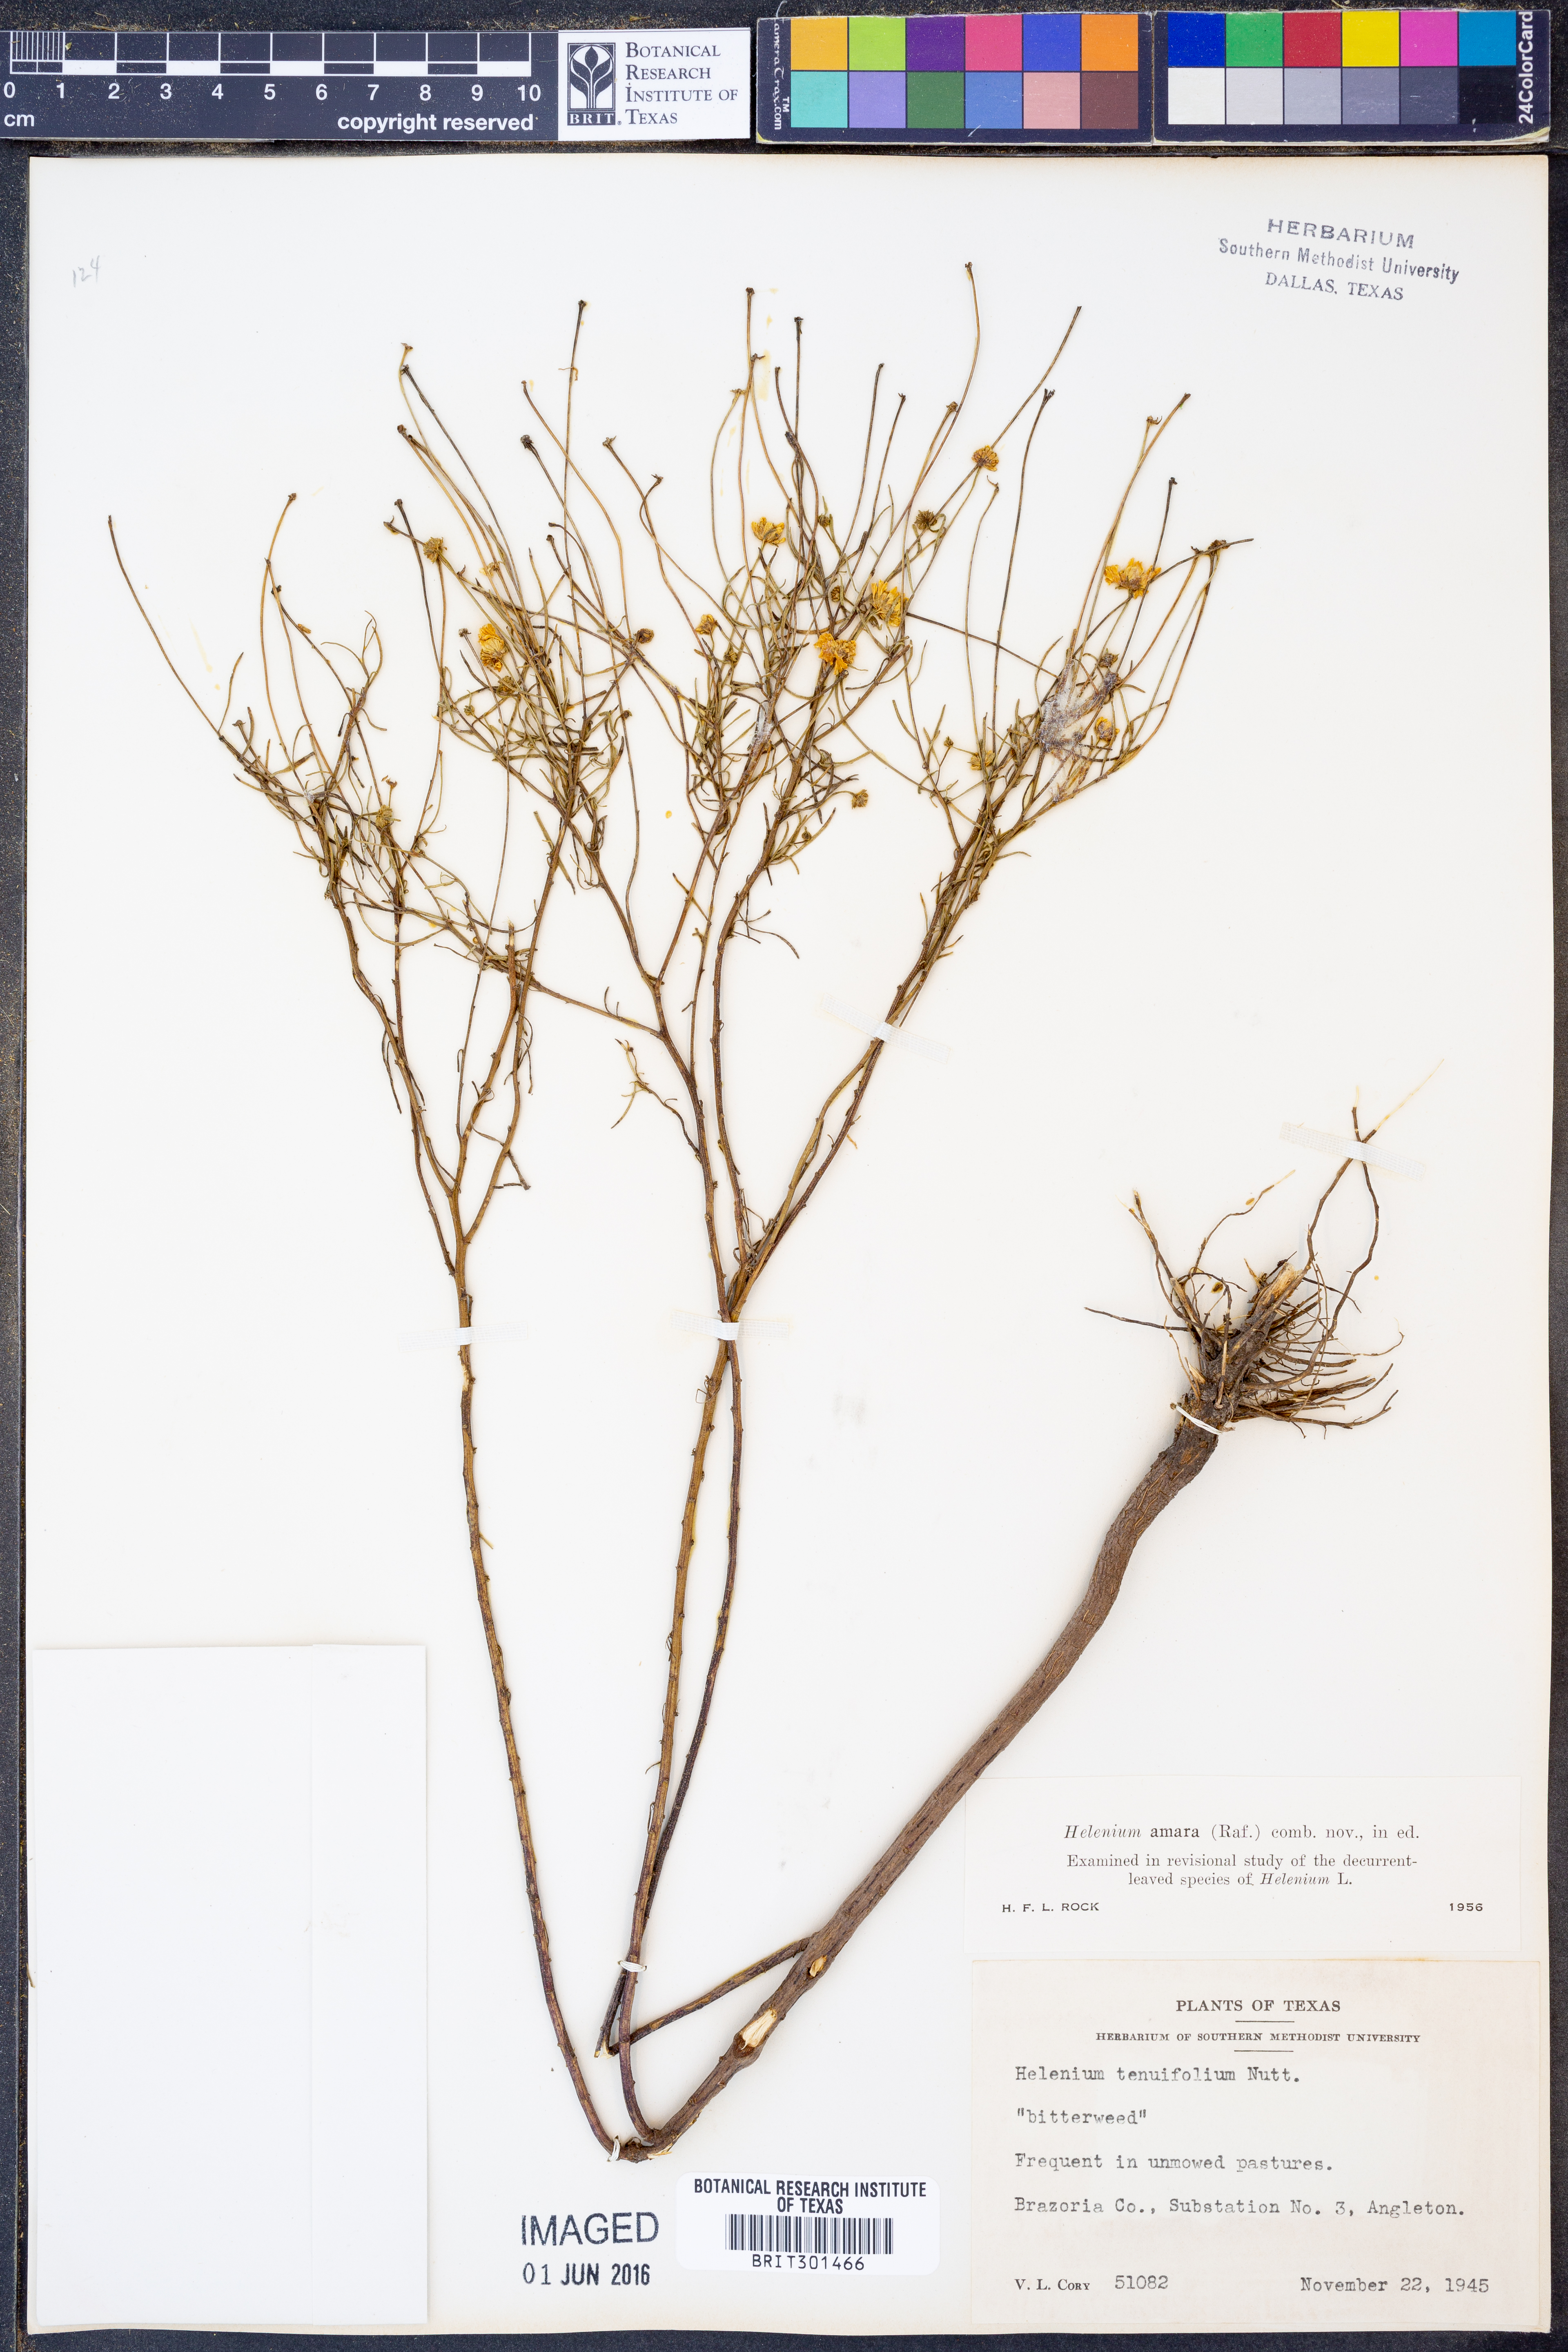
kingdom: Plantae
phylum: Tracheophyta
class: Magnoliopsida
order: Asterales
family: Asteraceae
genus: Helenium
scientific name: Helenium amarum
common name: Bitter sneezeweed
